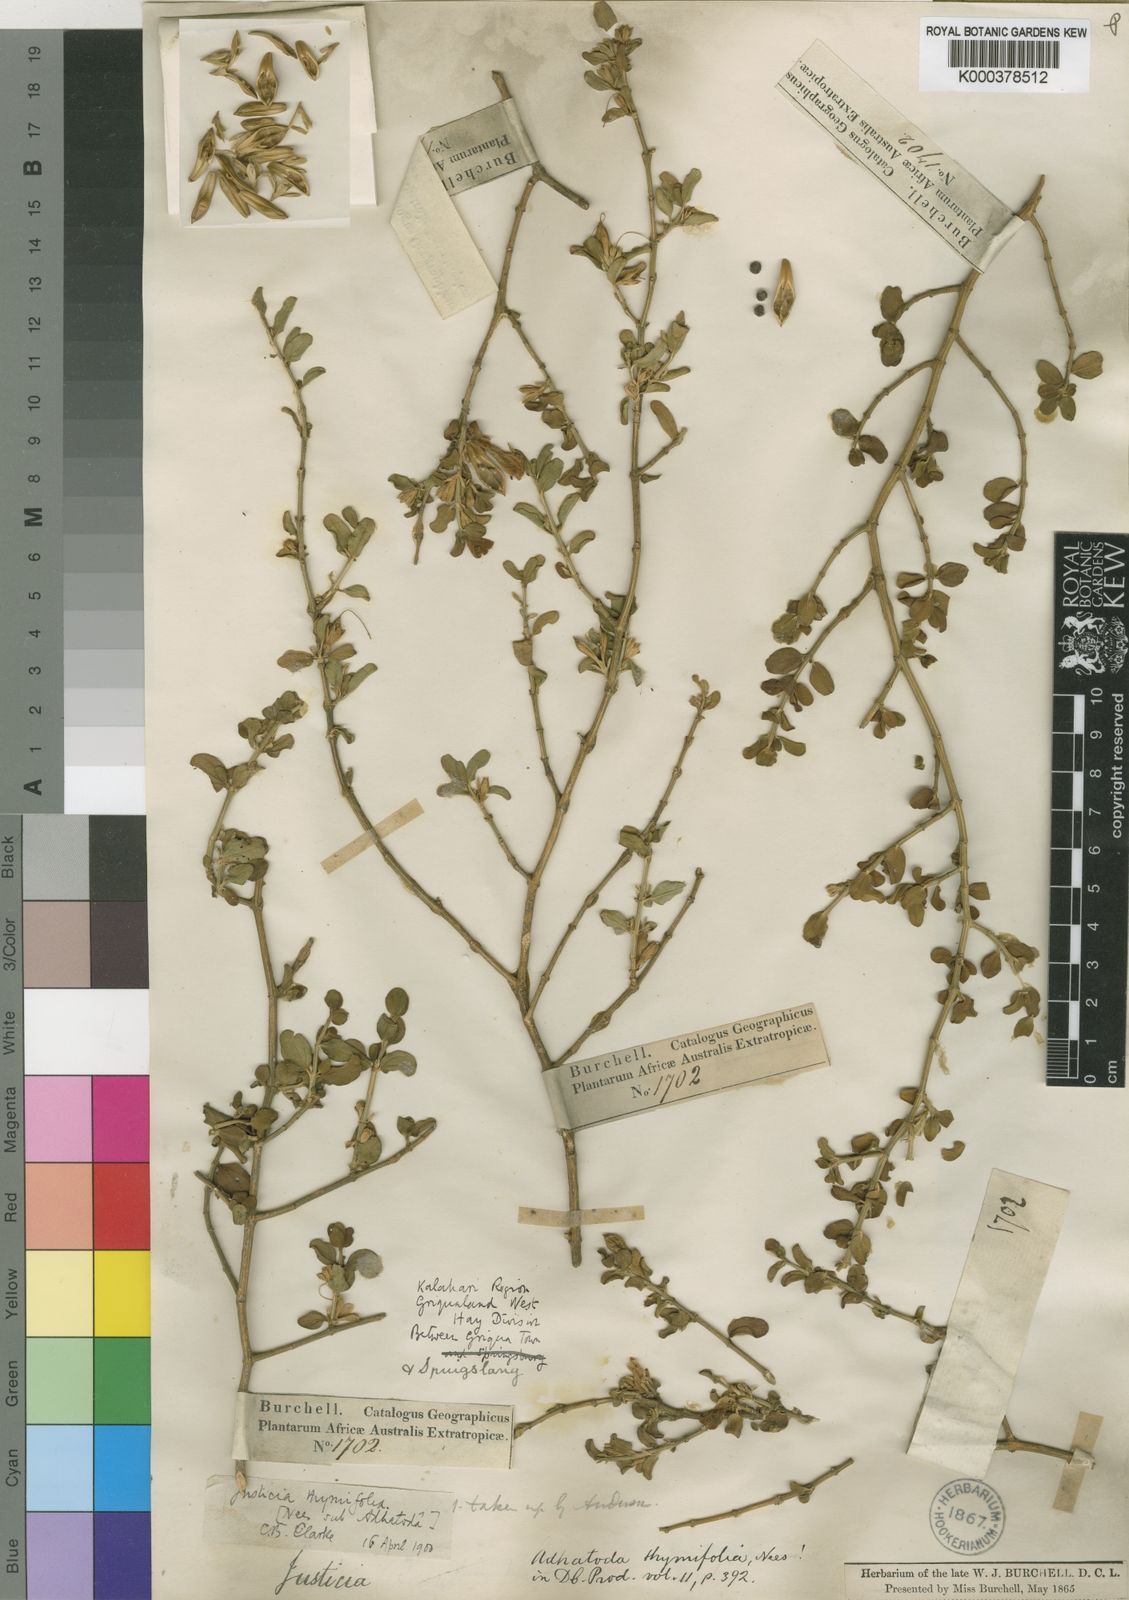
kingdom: Plantae
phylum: Tracheophyta
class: Magnoliopsida
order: Lamiales
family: Acanthaceae
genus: Justicia
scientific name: Justicia thymifolia
